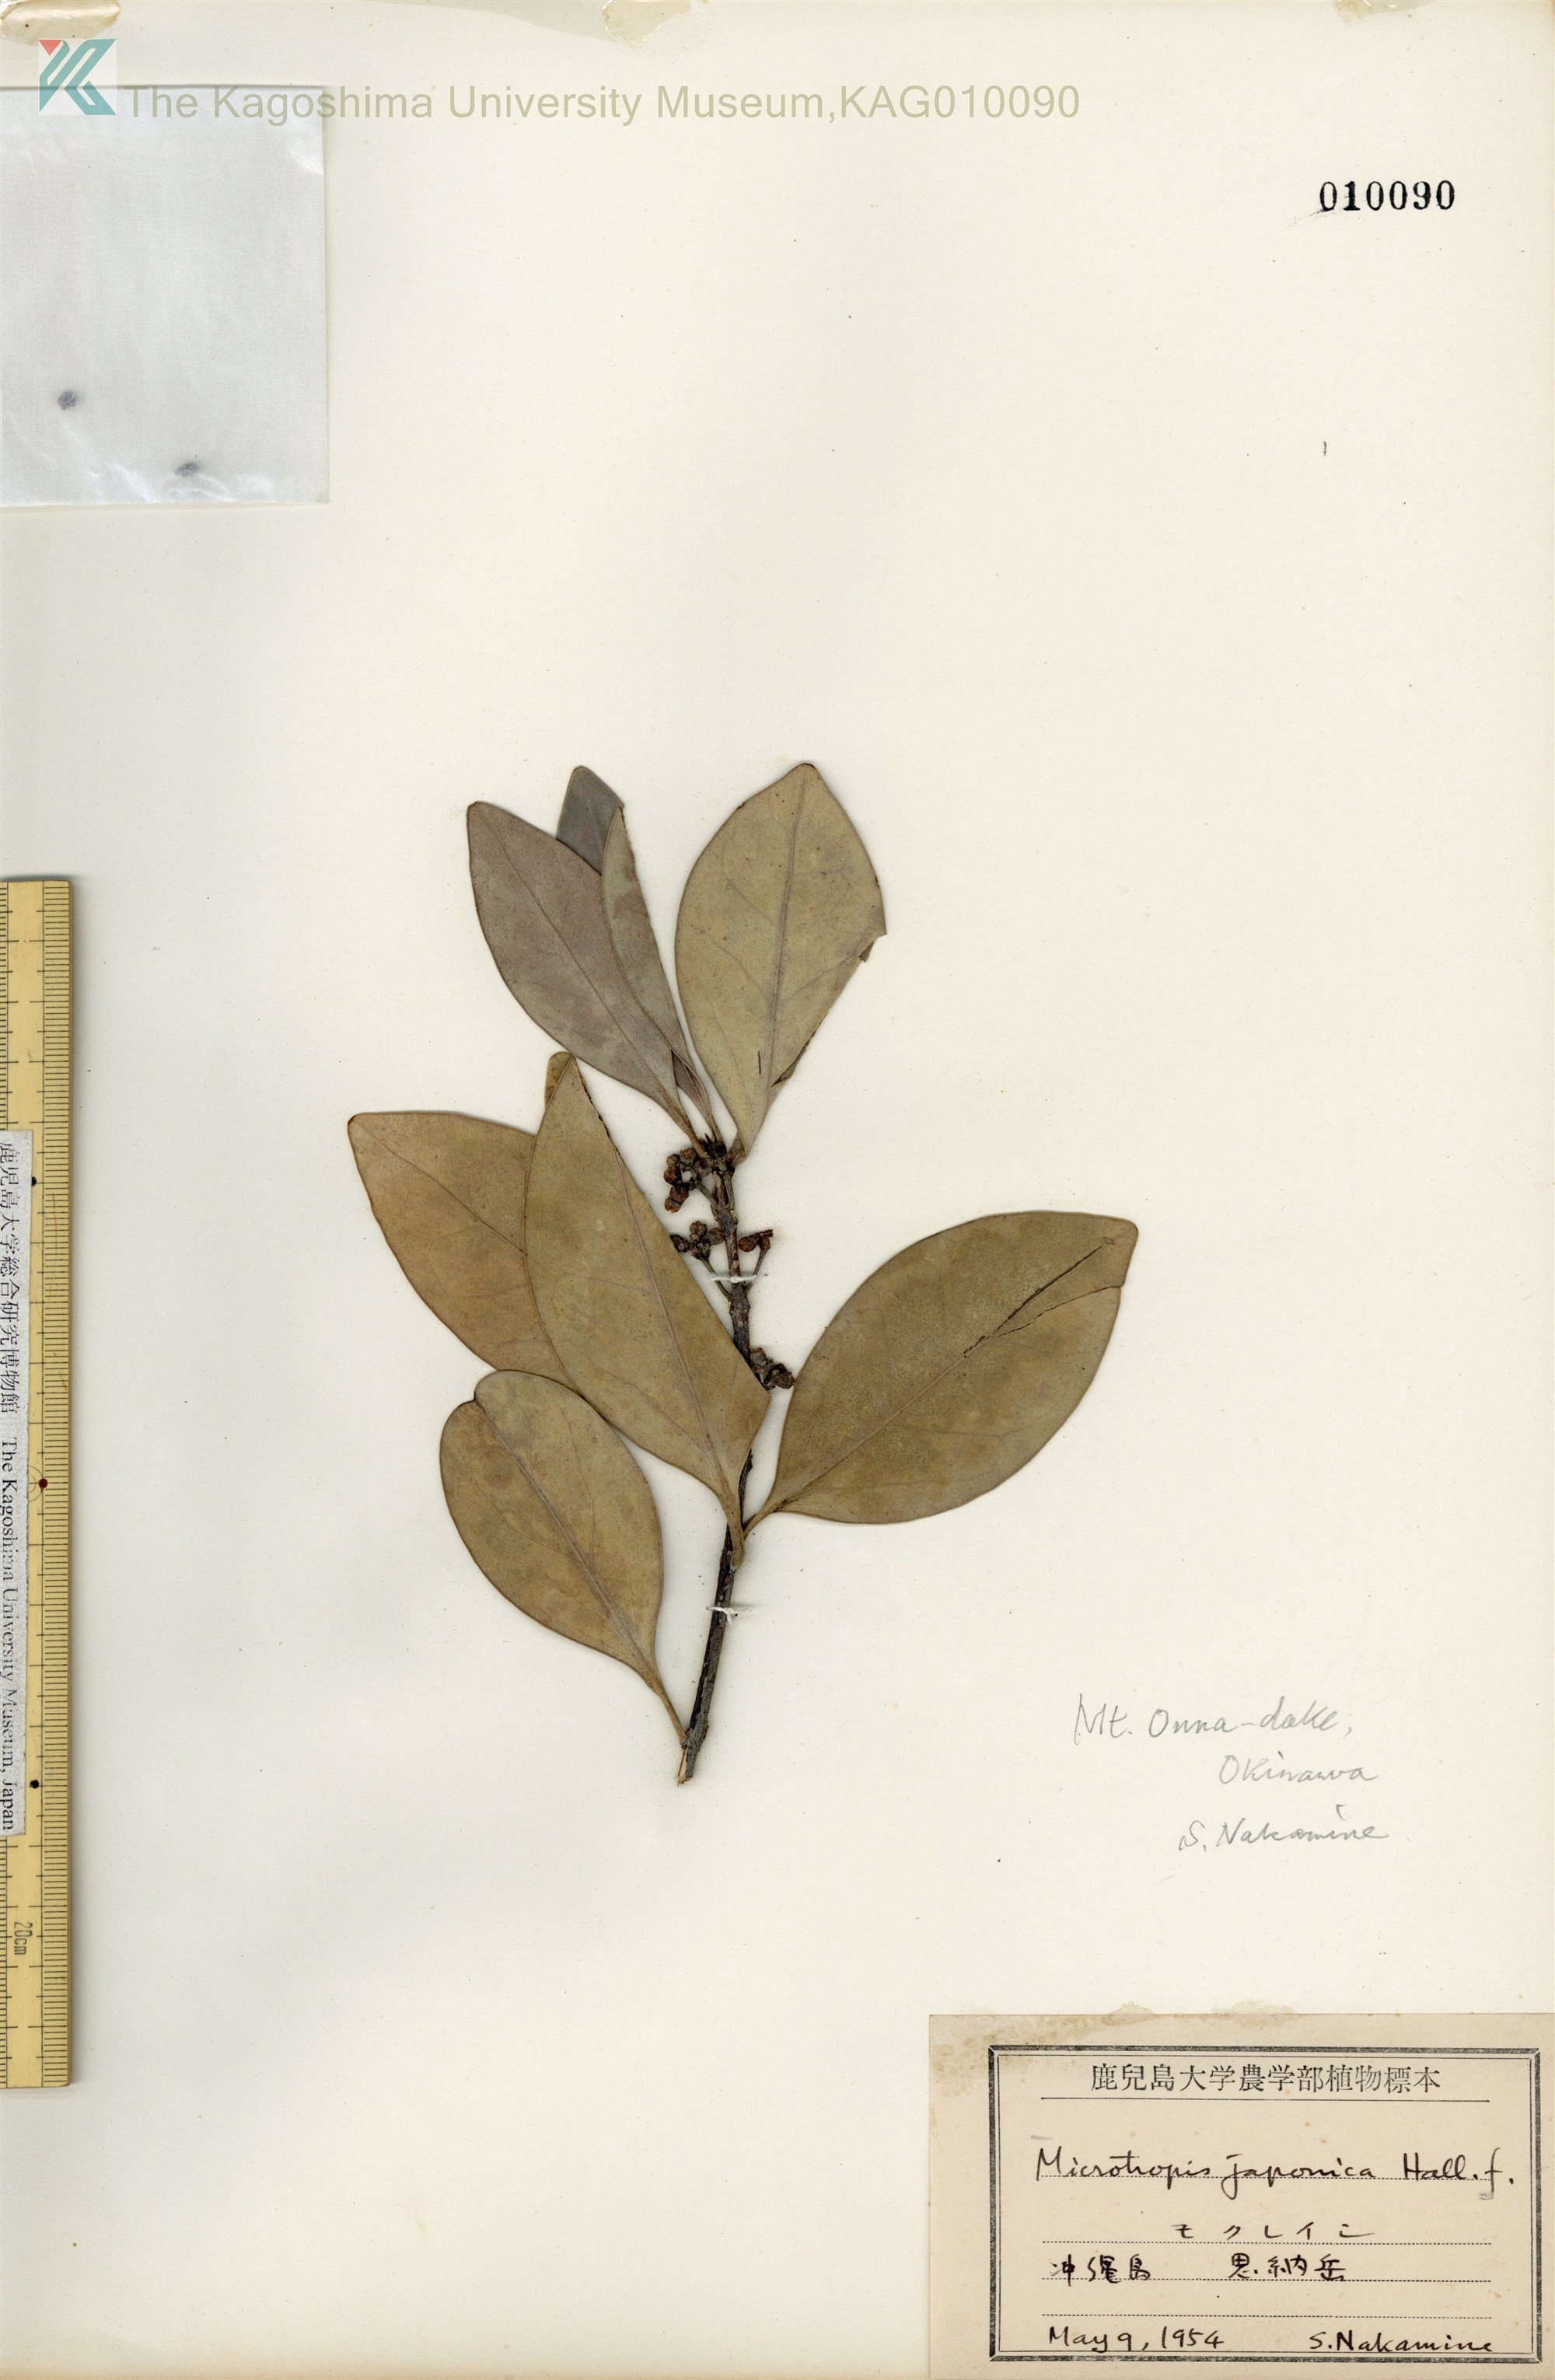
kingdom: Plantae
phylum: Tracheophyta
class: Magnoliopsida
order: Celastrales
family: Celastraceae
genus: Microtropis
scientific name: Microtropis japonica
